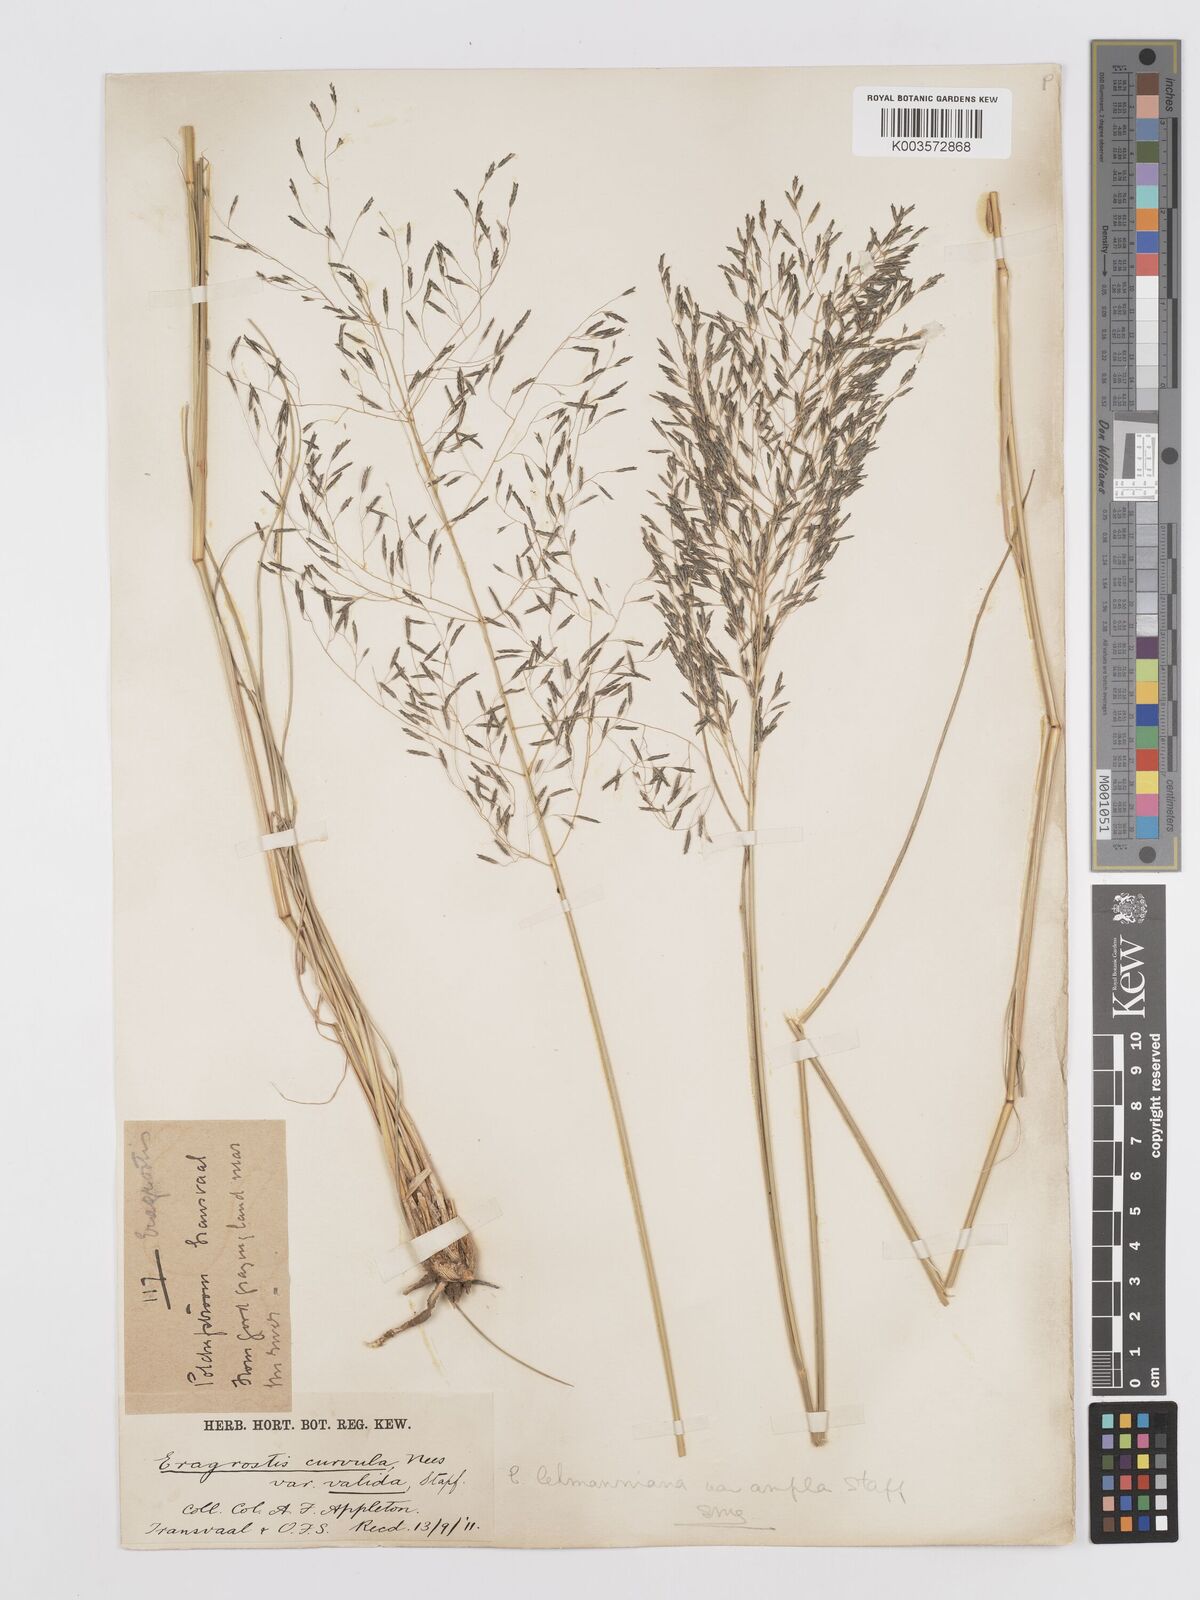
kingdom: Plantae
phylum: Tracheophyta
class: Liliopsida
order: Poales
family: Poaceae
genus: Eragrostis
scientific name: Eragrostis curvula
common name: African love-grass
